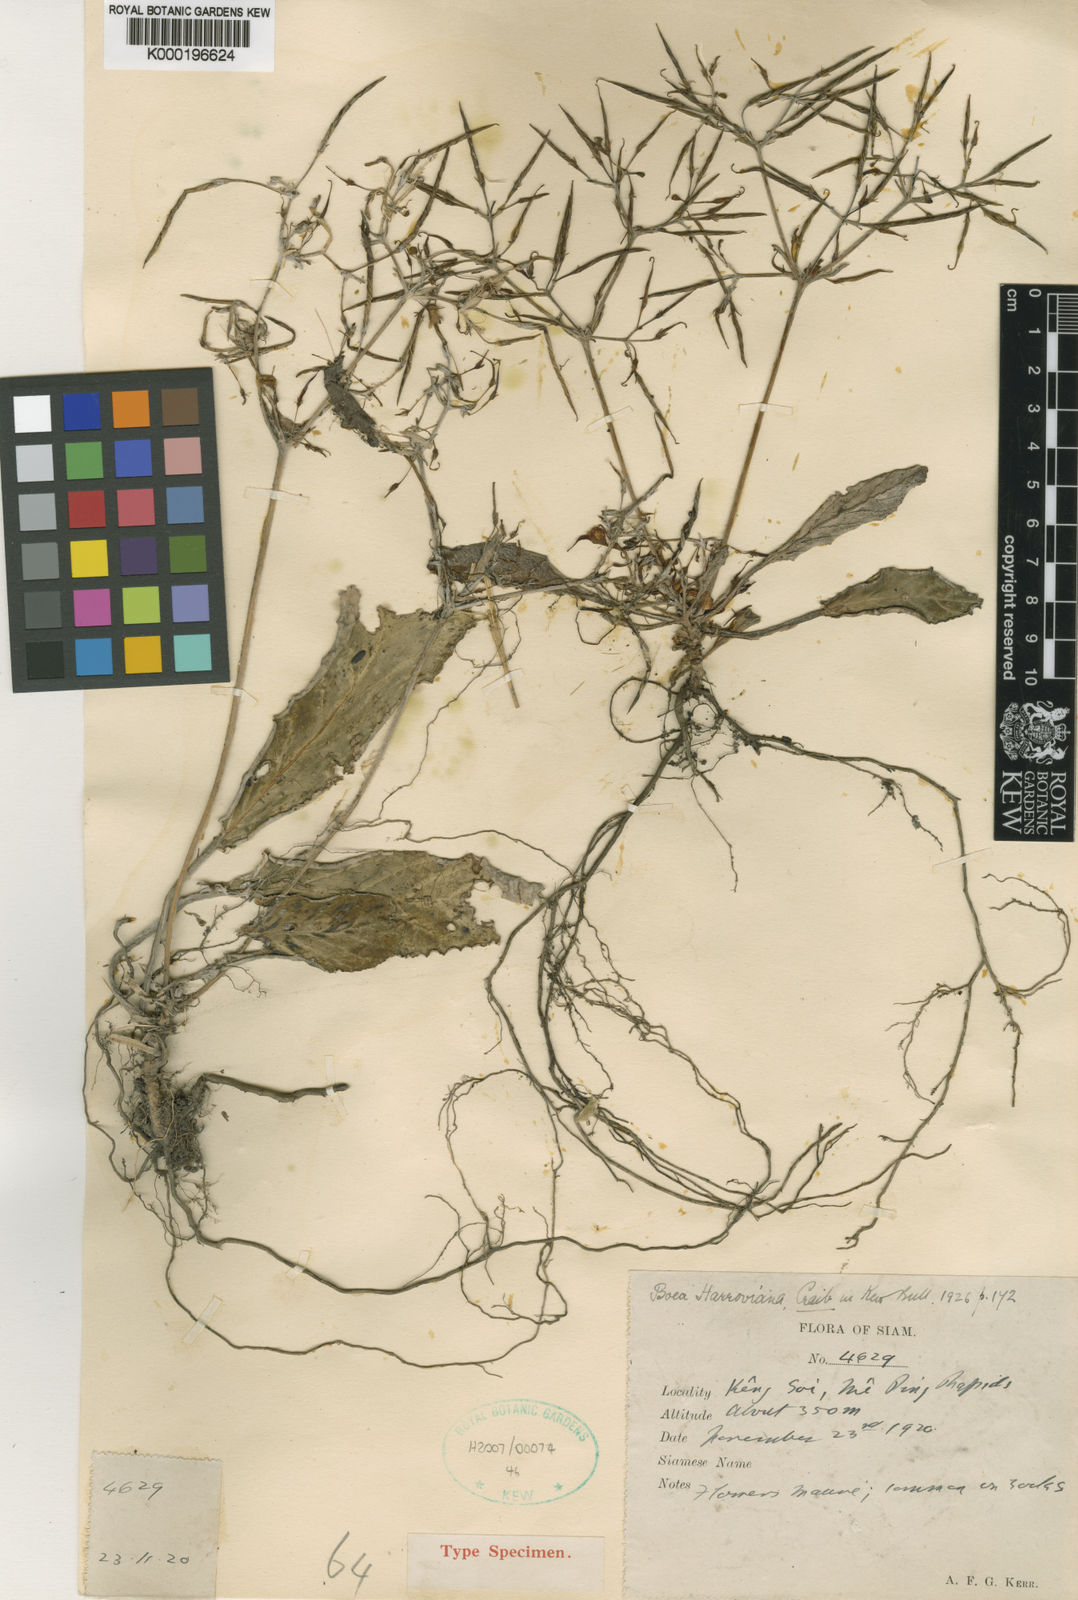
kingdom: Plantae
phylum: Tracheophyta
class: Magnoliopsida
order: Lamiales
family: Gesneriaceae
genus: Paraboea
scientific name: Paraboea harroviana
